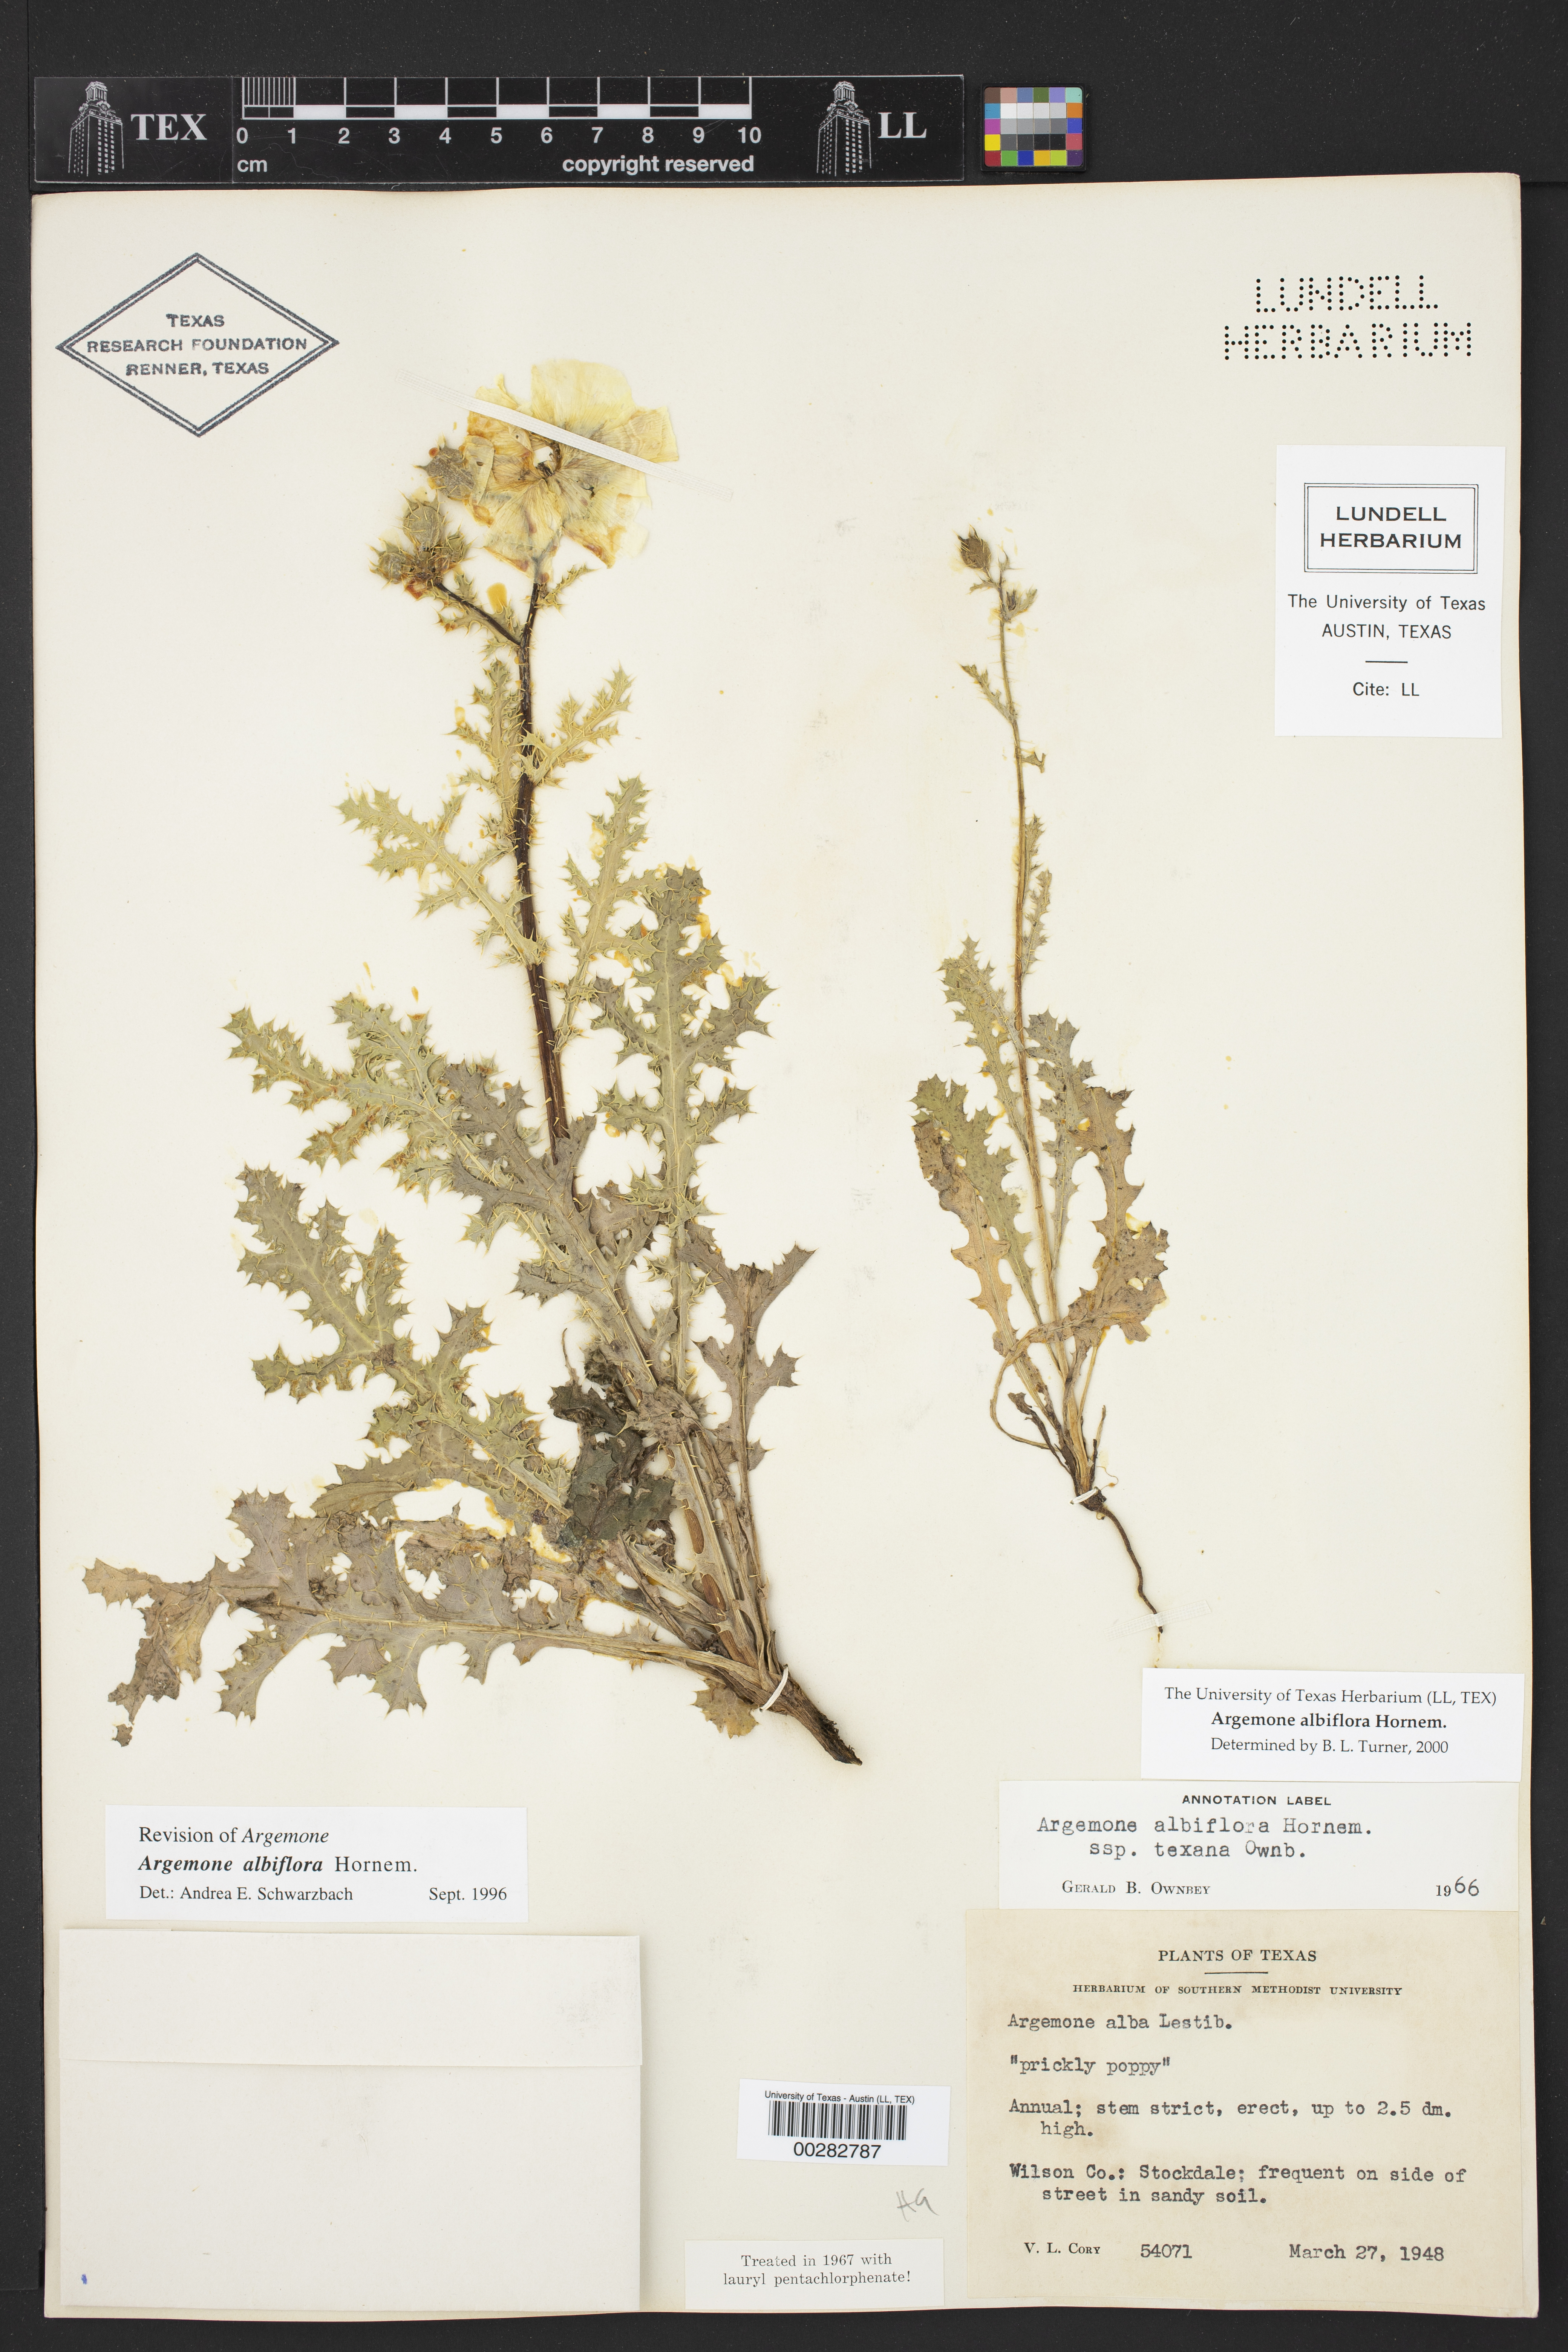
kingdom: Plantae
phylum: Tracheophyta
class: Magnoliopsida
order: Ranunculales
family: Papaveraceae
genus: Argemone
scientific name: Argemone albiflora
